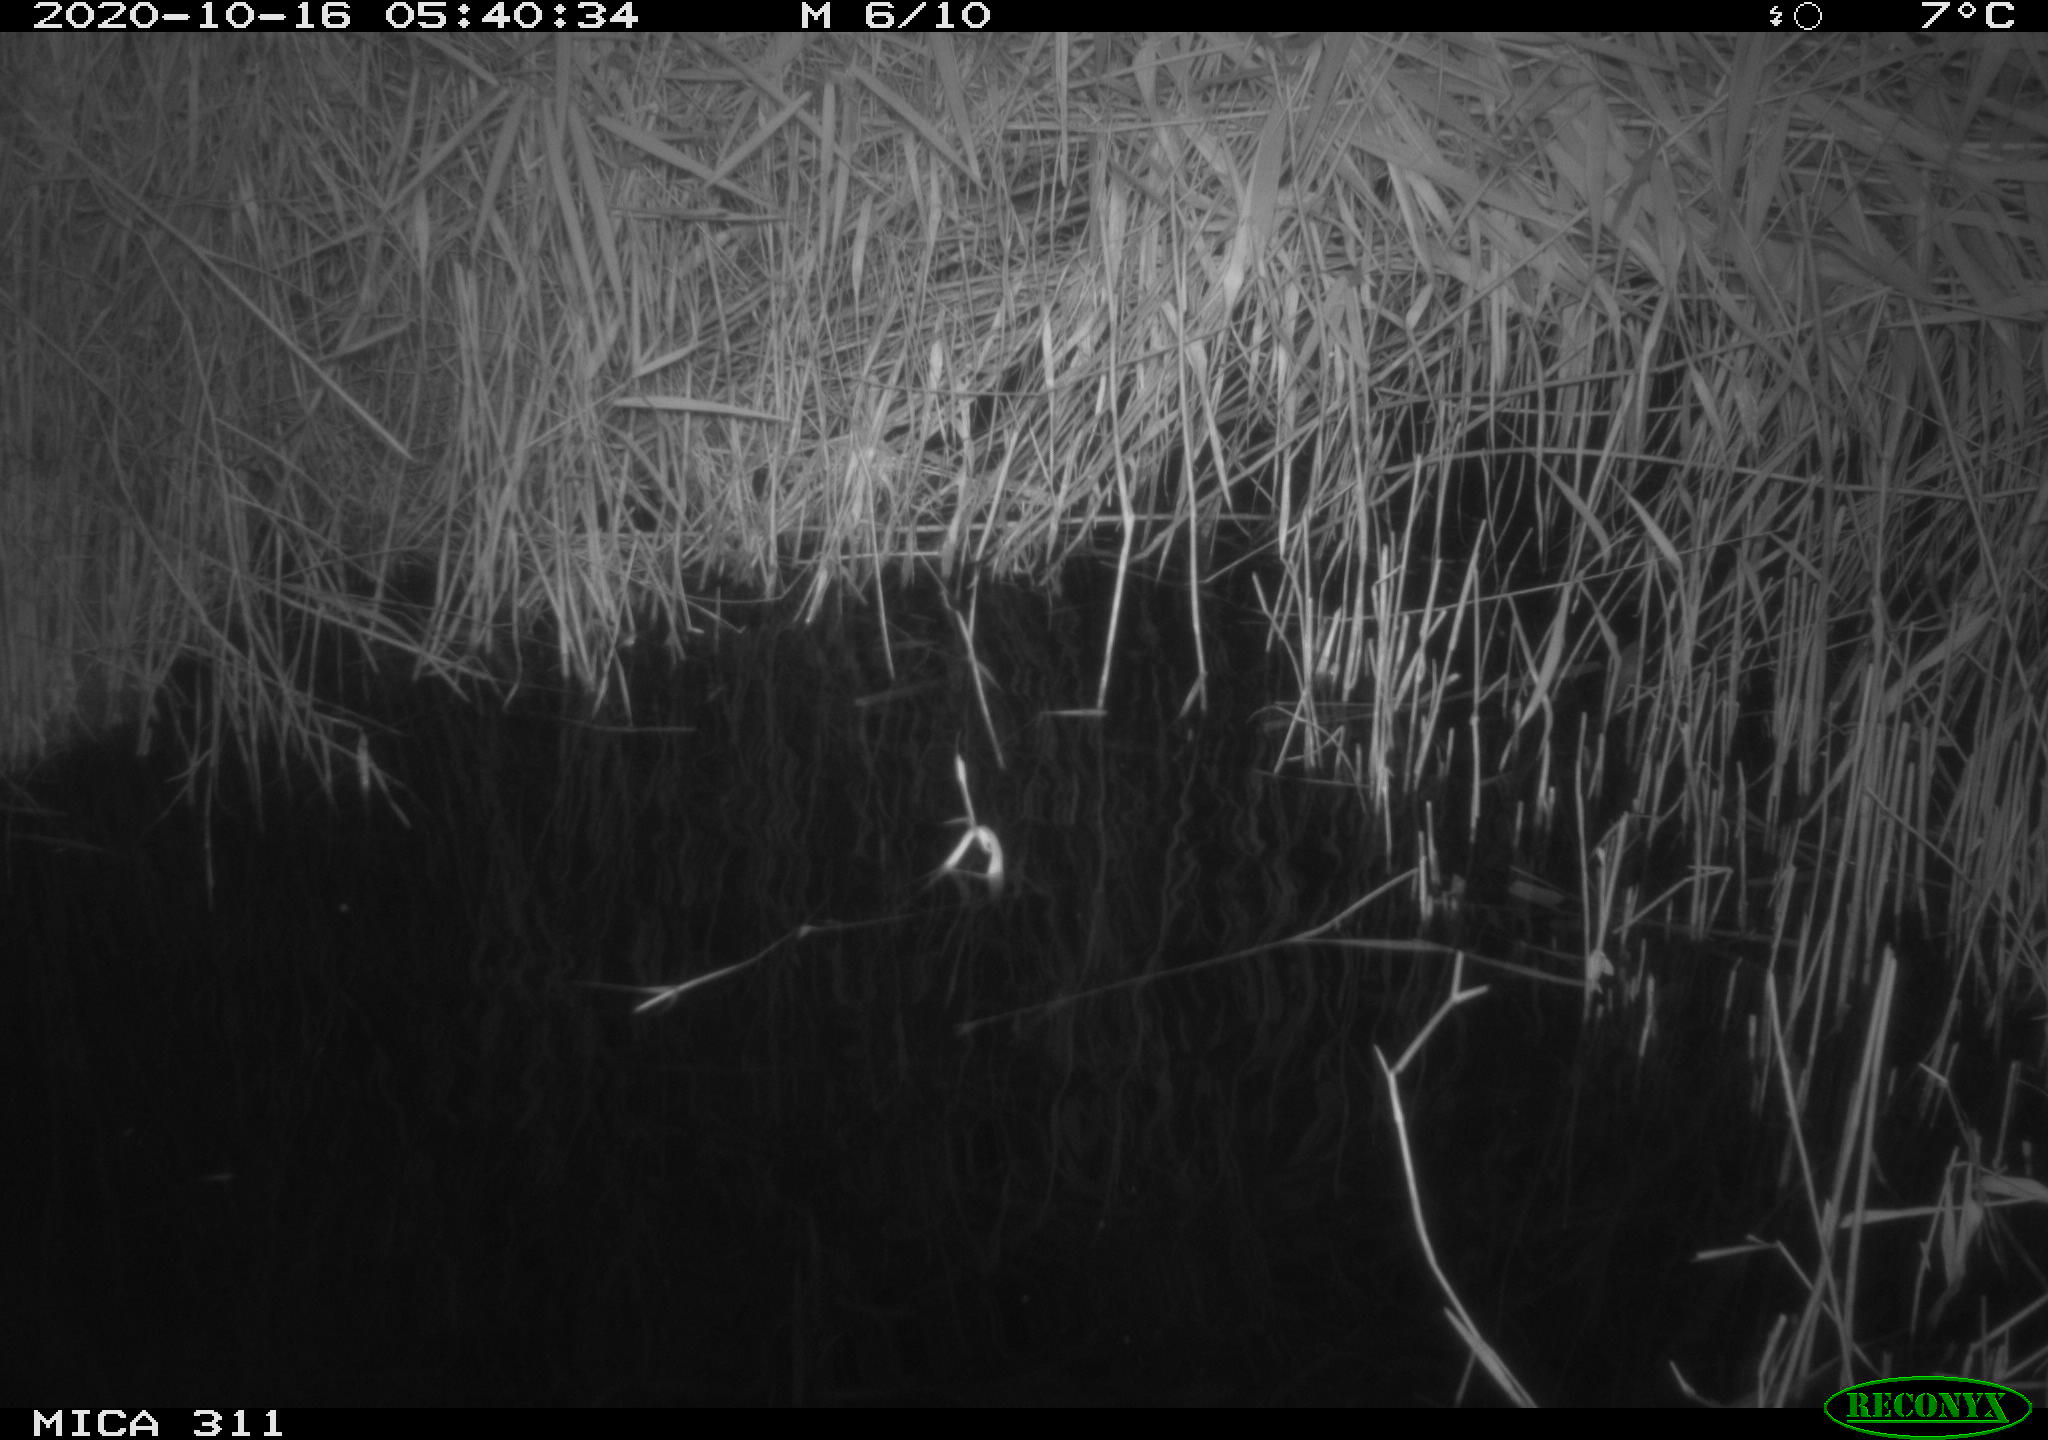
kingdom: Animalia
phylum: Chordata
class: Mammalia
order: Rodentia
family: Muridae
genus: Rattus
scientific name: Rattus norvegicus
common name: Brown rat
